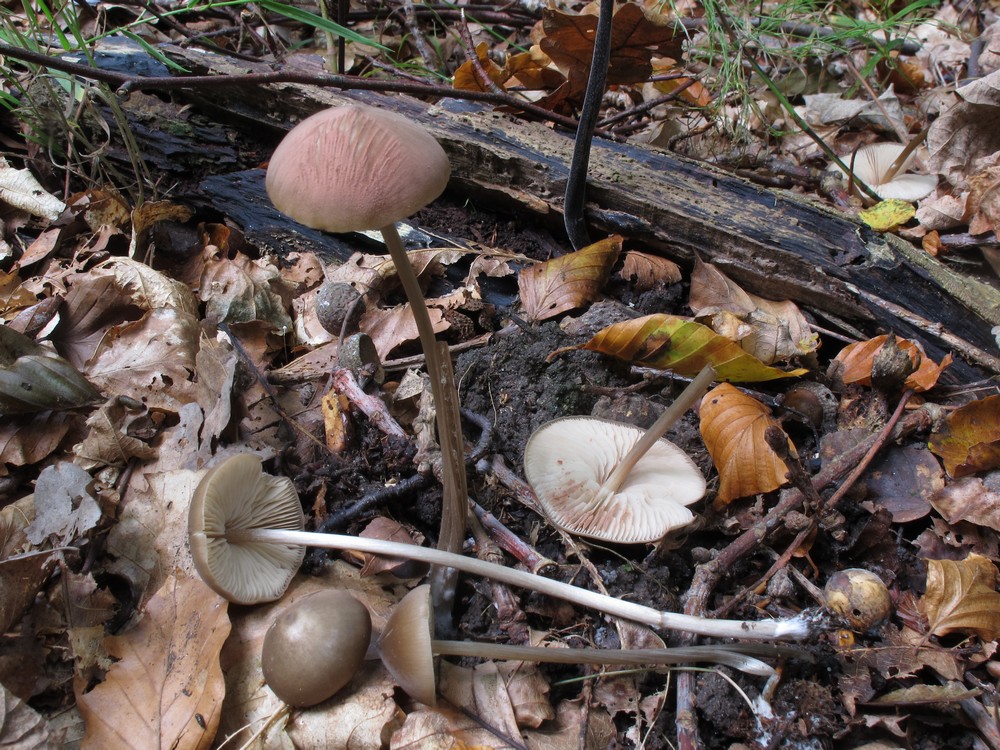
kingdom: Fungi
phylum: Basidiomycota
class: Agaricomycetes
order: Agaricales
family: Entolomataceae
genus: Entoloma
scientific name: Entoloma hebes
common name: krat-rødblad
